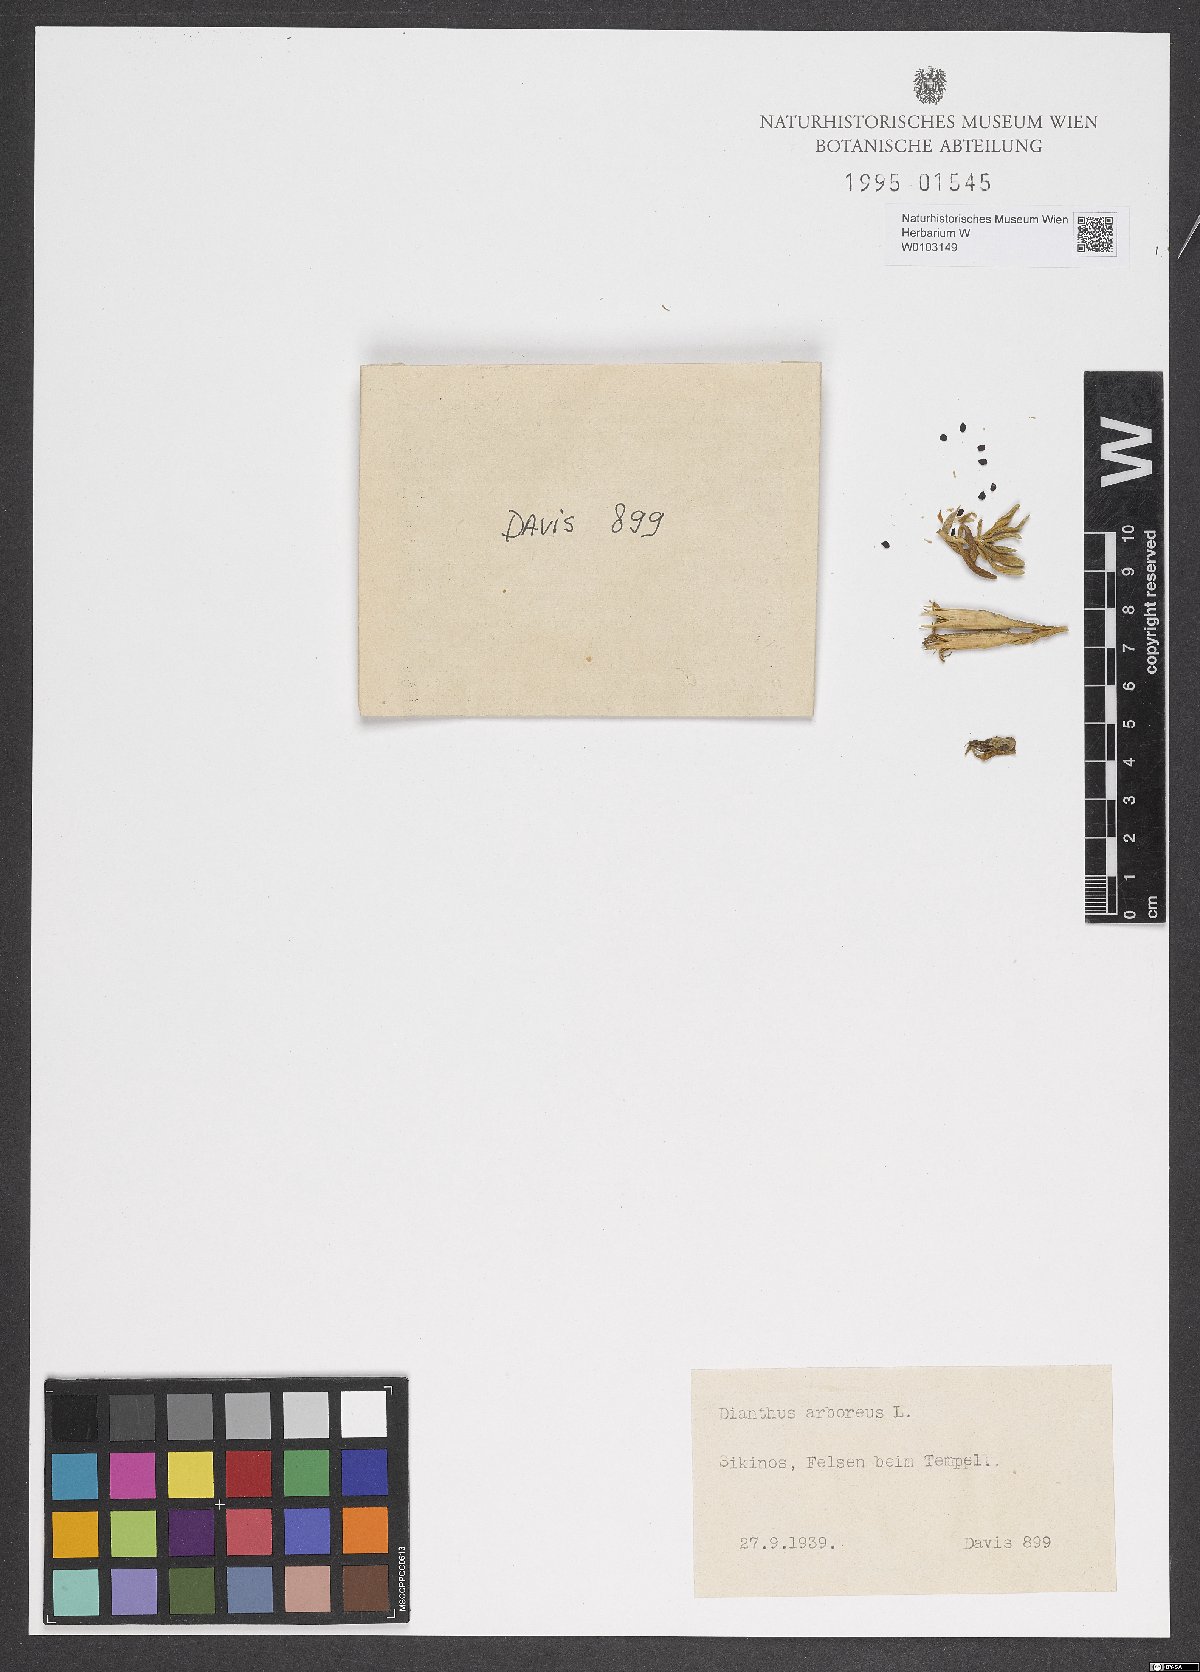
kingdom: Plantae
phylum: Tracheophyta
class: Magnoliopsida
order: Caryophyllales
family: Caryophyllaceae
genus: Dianthus
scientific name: Dianthus juniperinus
